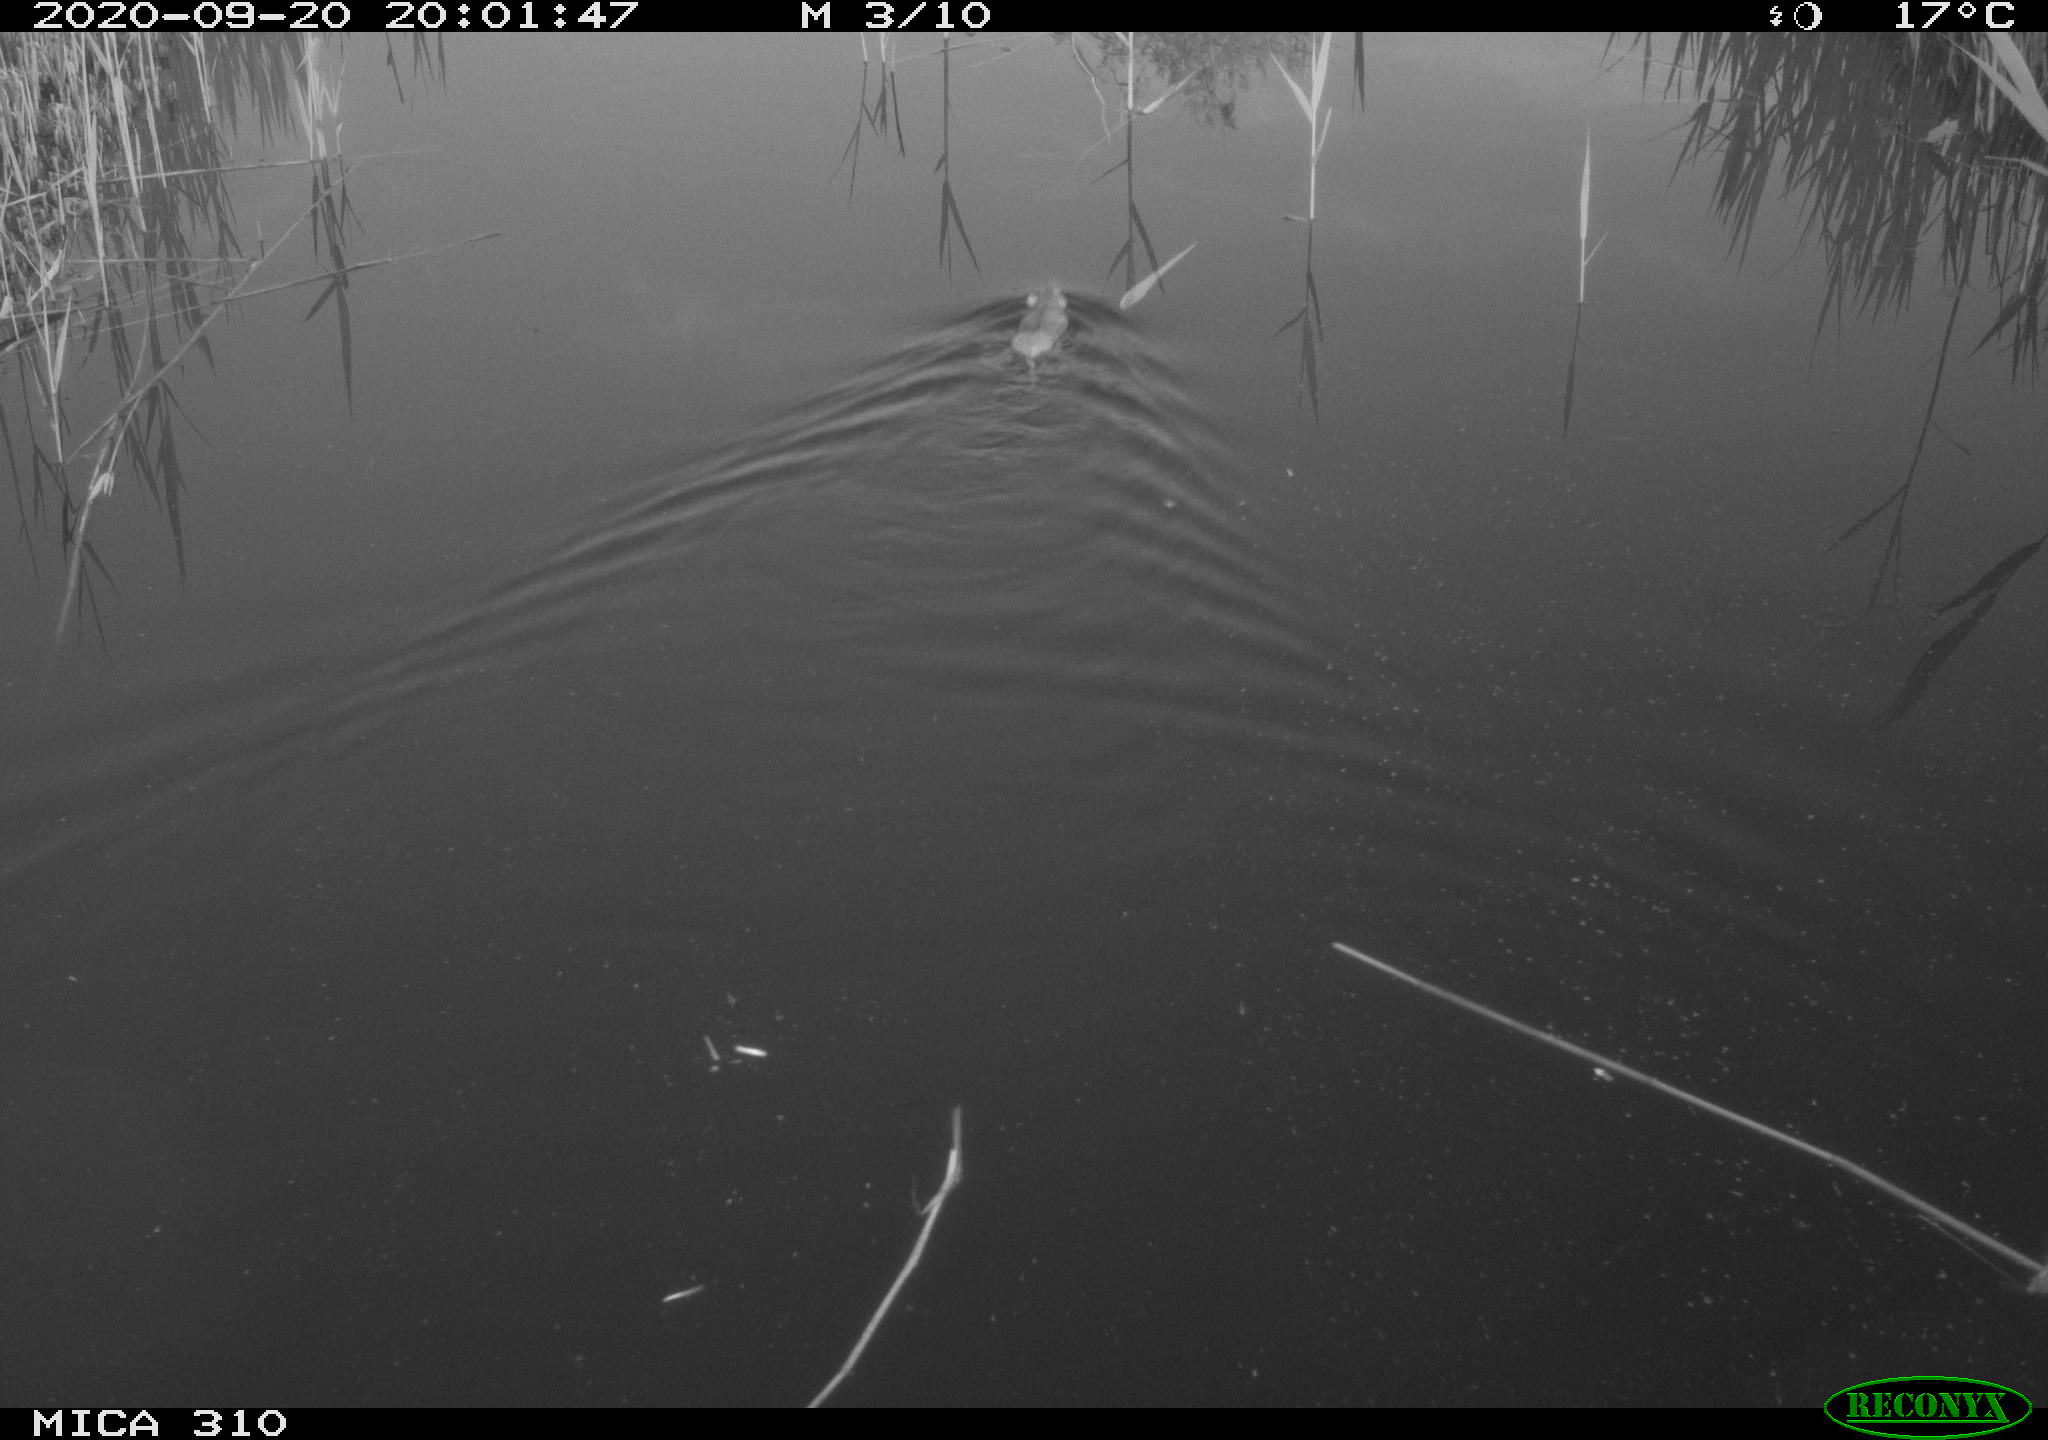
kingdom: Animalia
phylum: Chordata
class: Mammalia
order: Rodentia
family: Muridae
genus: Rattus
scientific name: Rattus norvegicus
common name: Brown rat
